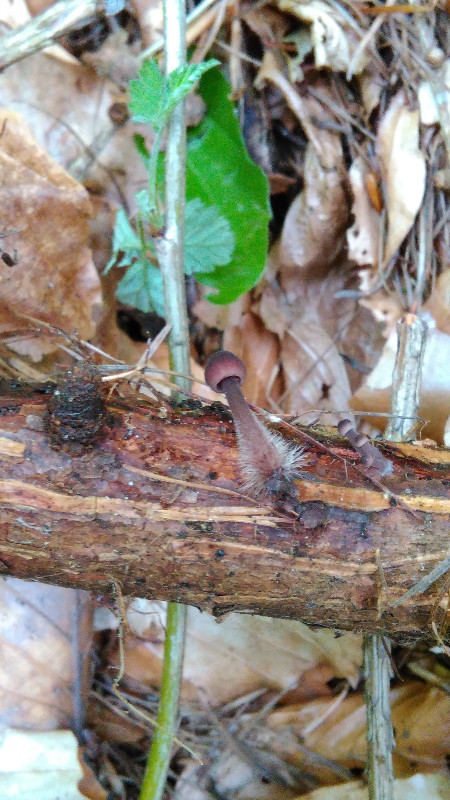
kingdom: Fungi
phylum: Basidiomycota
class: Agaricomycetes
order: Agaricales
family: Mycenaceae
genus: Mycena
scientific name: Mycena
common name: huesvamp
